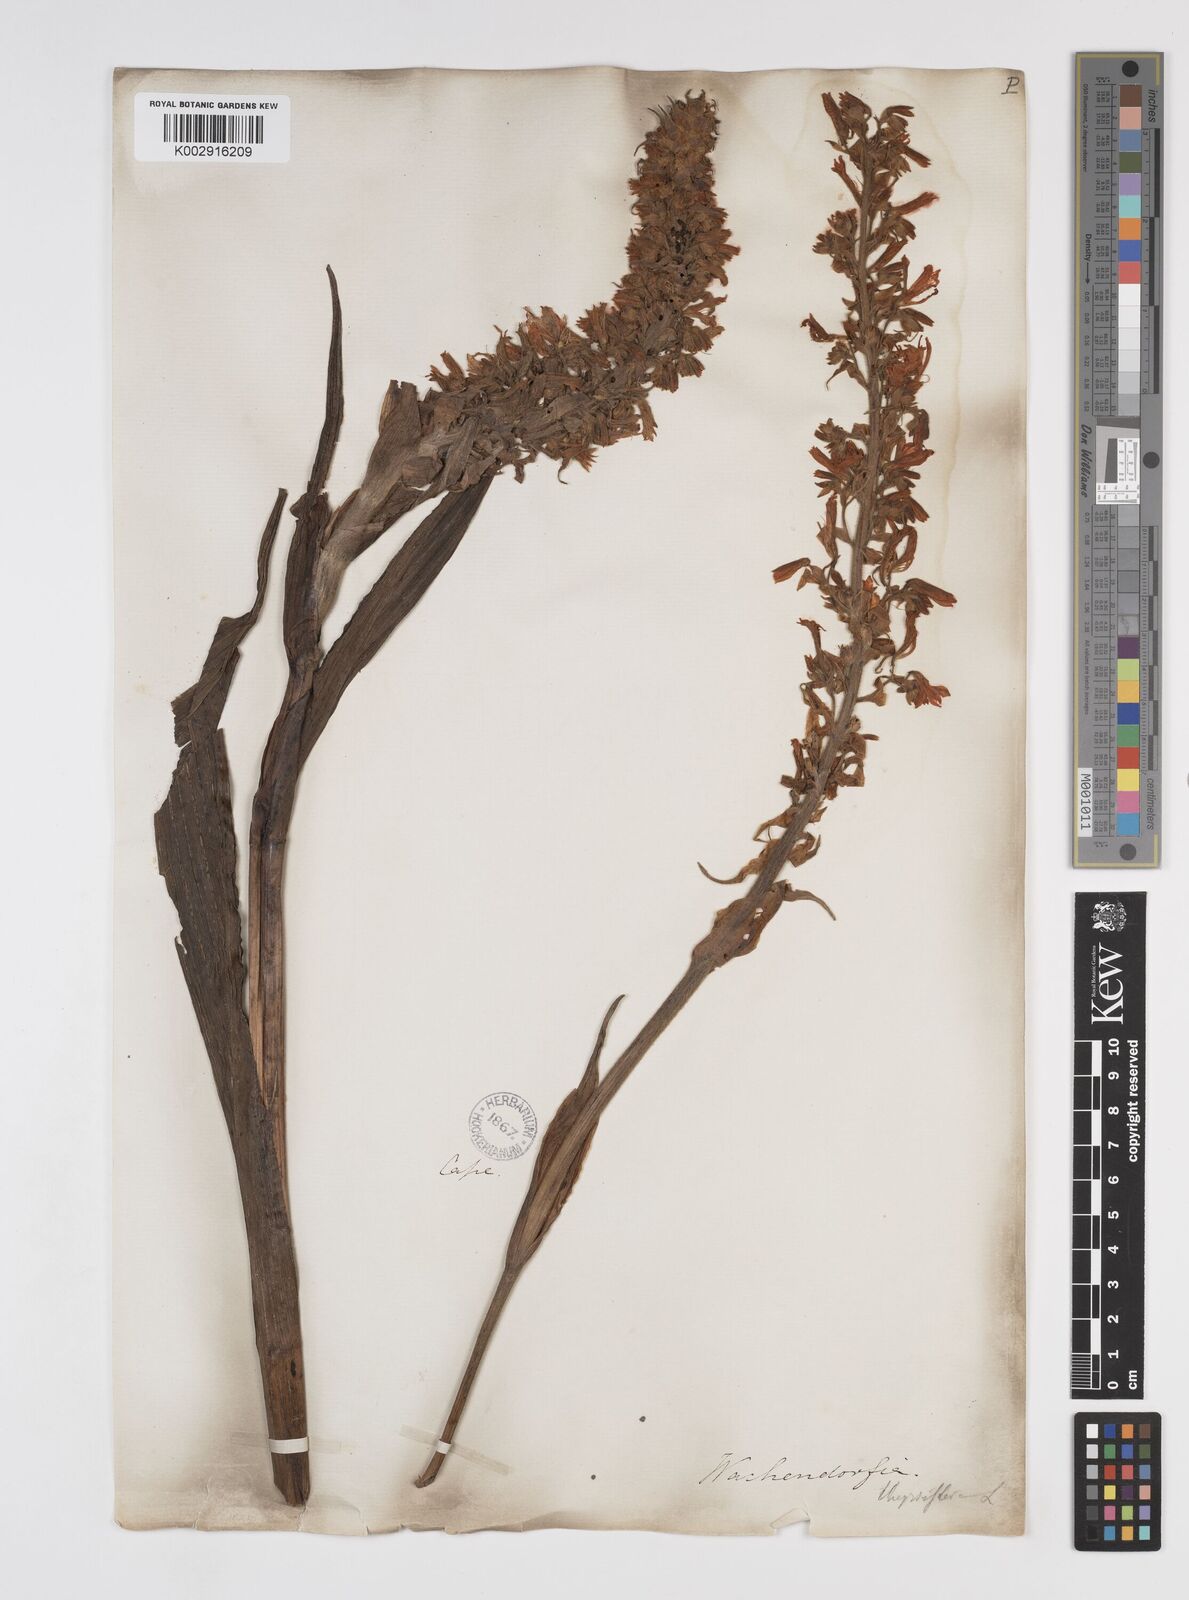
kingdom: Plantae
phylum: Tracheophyta
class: Liliopsida
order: Commelinales
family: Haemodoraceae
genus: Wachendorfia
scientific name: Wachendorfia thyrsiflora
